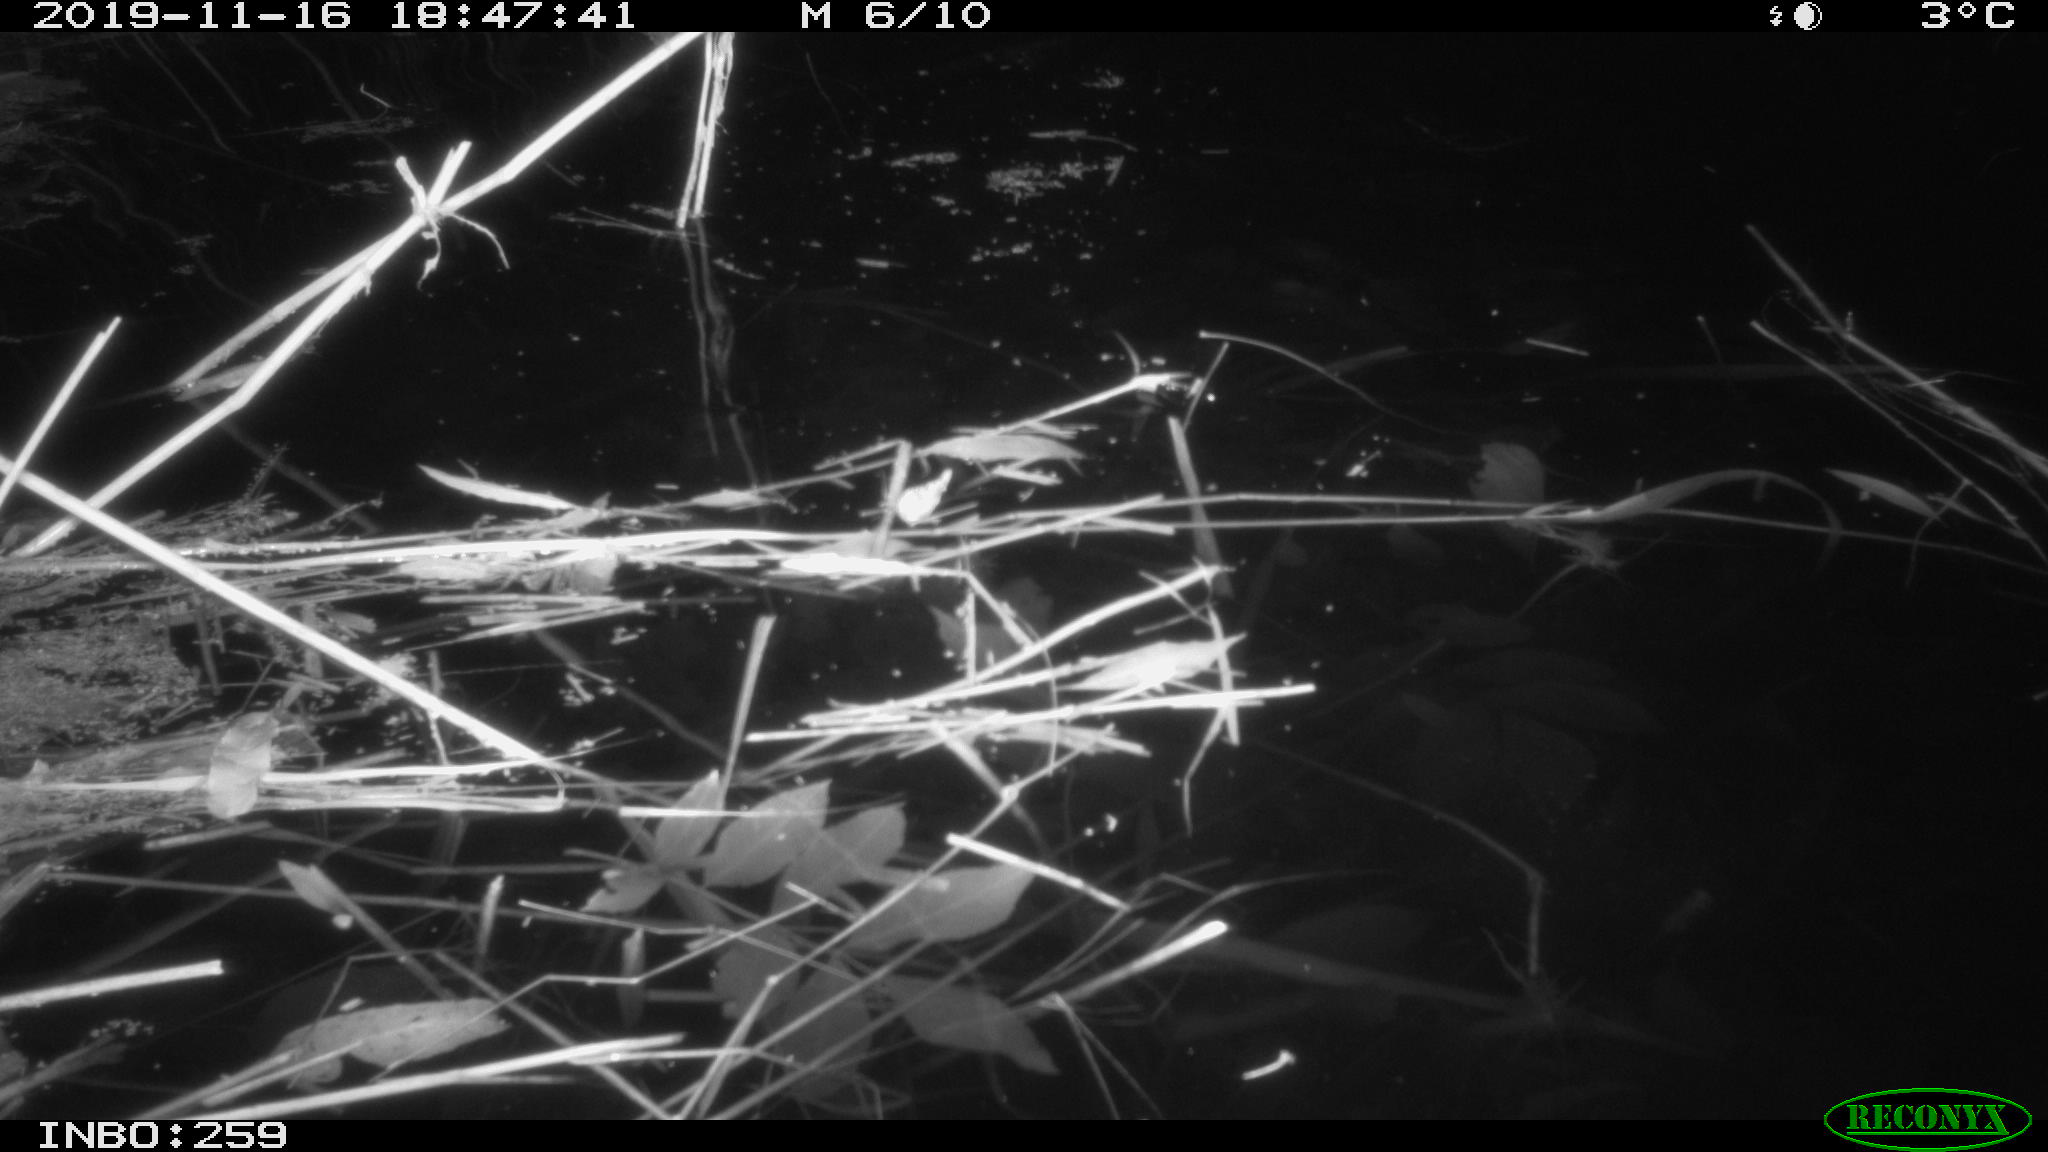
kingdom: Animalia
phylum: Chordata
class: Mammalia
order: Rodentia
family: Cricetidae
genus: Ondatra
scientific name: Ondatra zibethicus
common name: Muskrat
